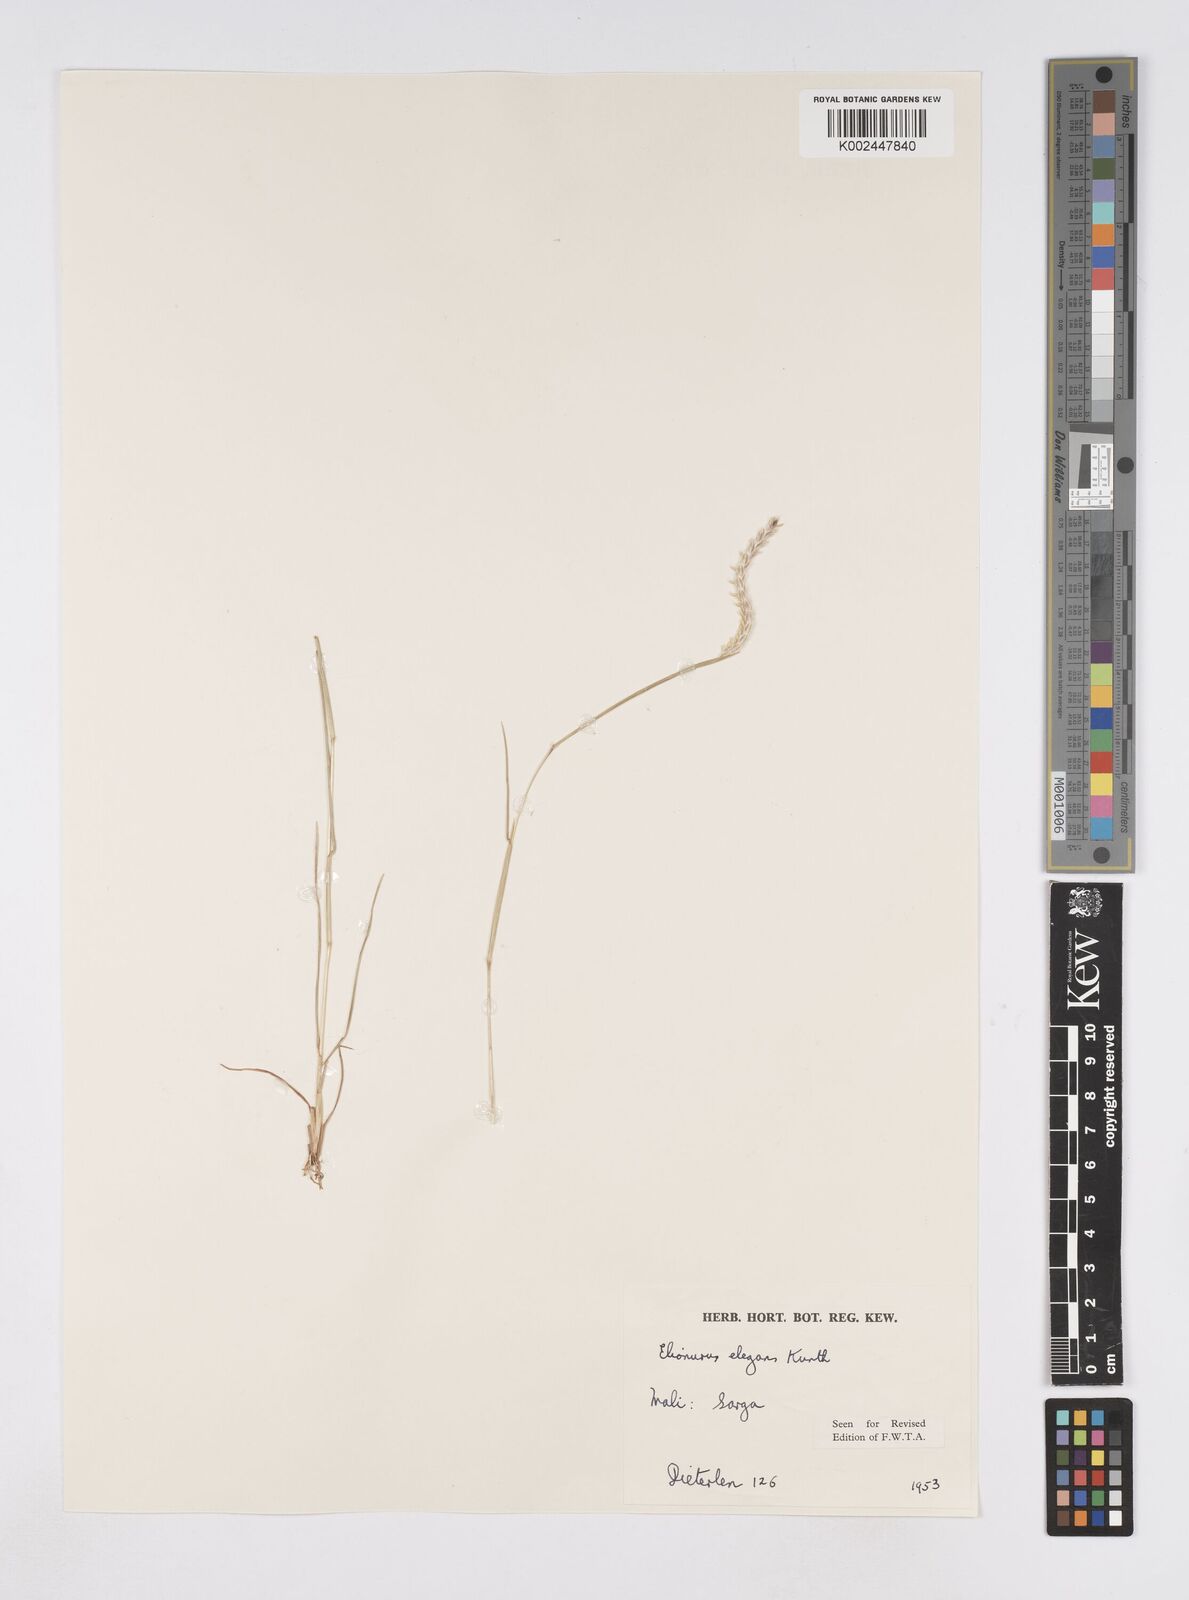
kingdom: Plantae
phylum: Tracheophyta
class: Liliopsida
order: Poales
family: Poaceae
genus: Elionurus
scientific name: Elionurus elegans
